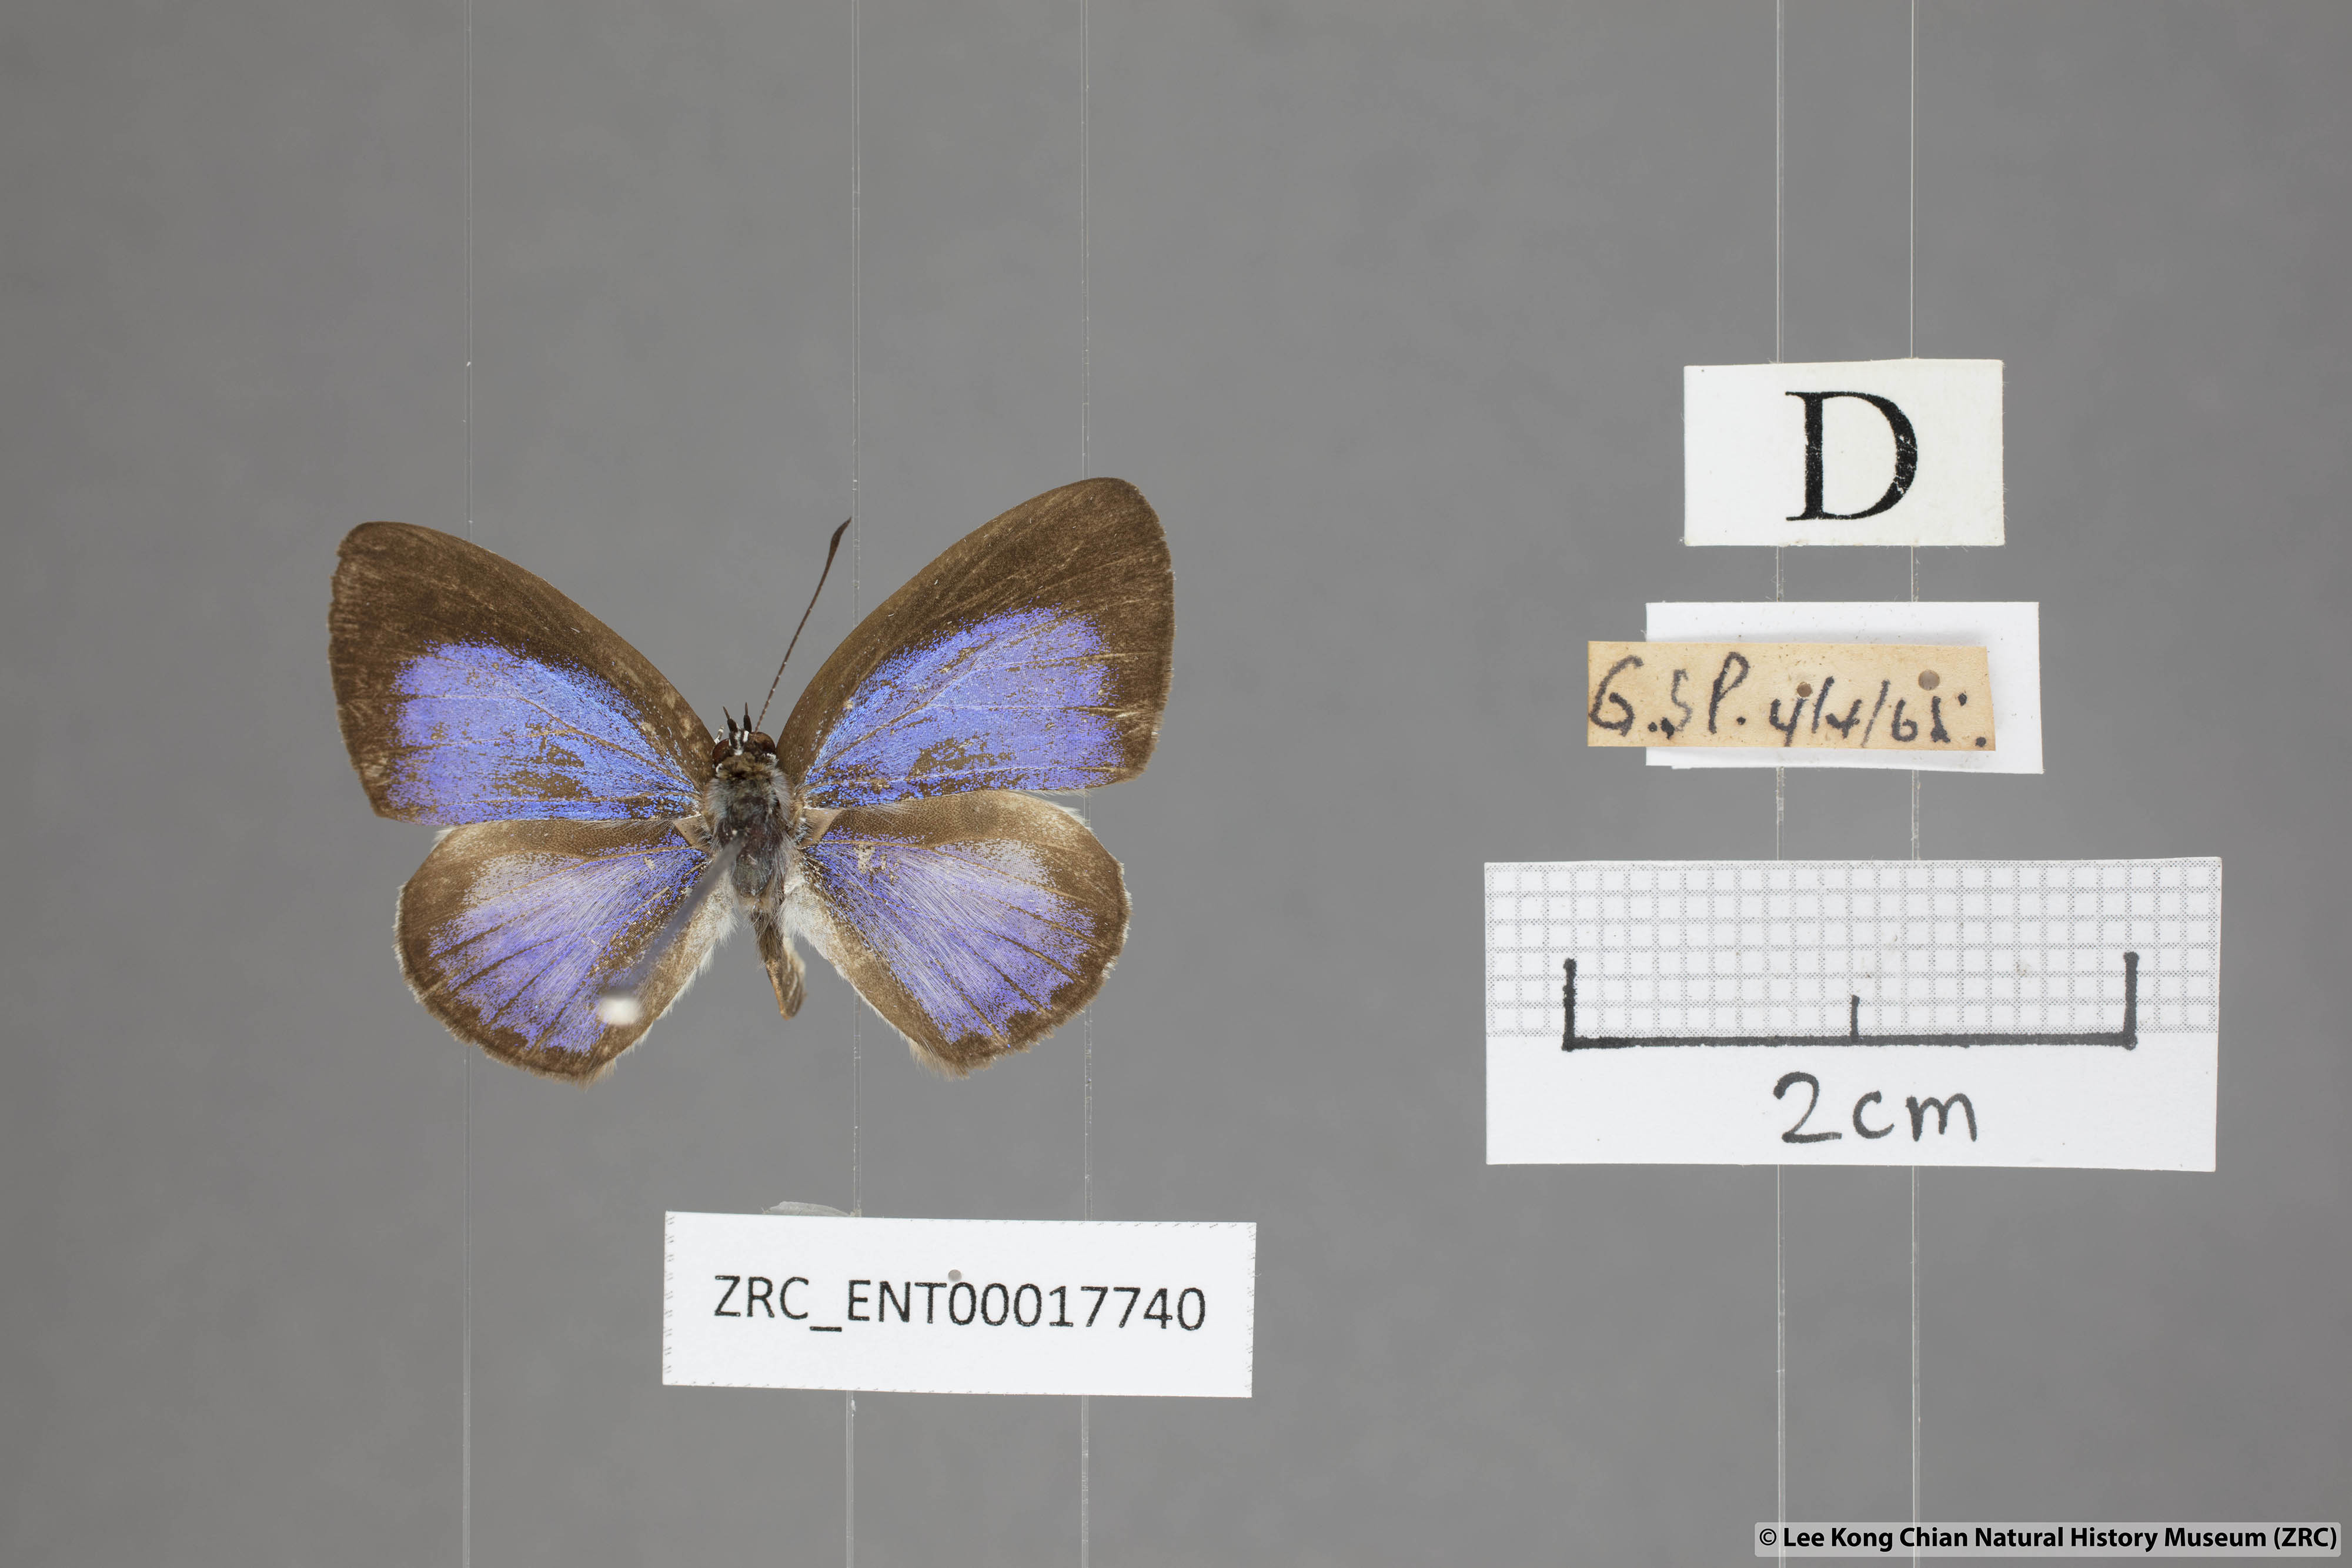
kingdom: Animalia
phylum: Arthropoda
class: Insecta
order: Lepidoptera
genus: Plautella
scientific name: Plautella
